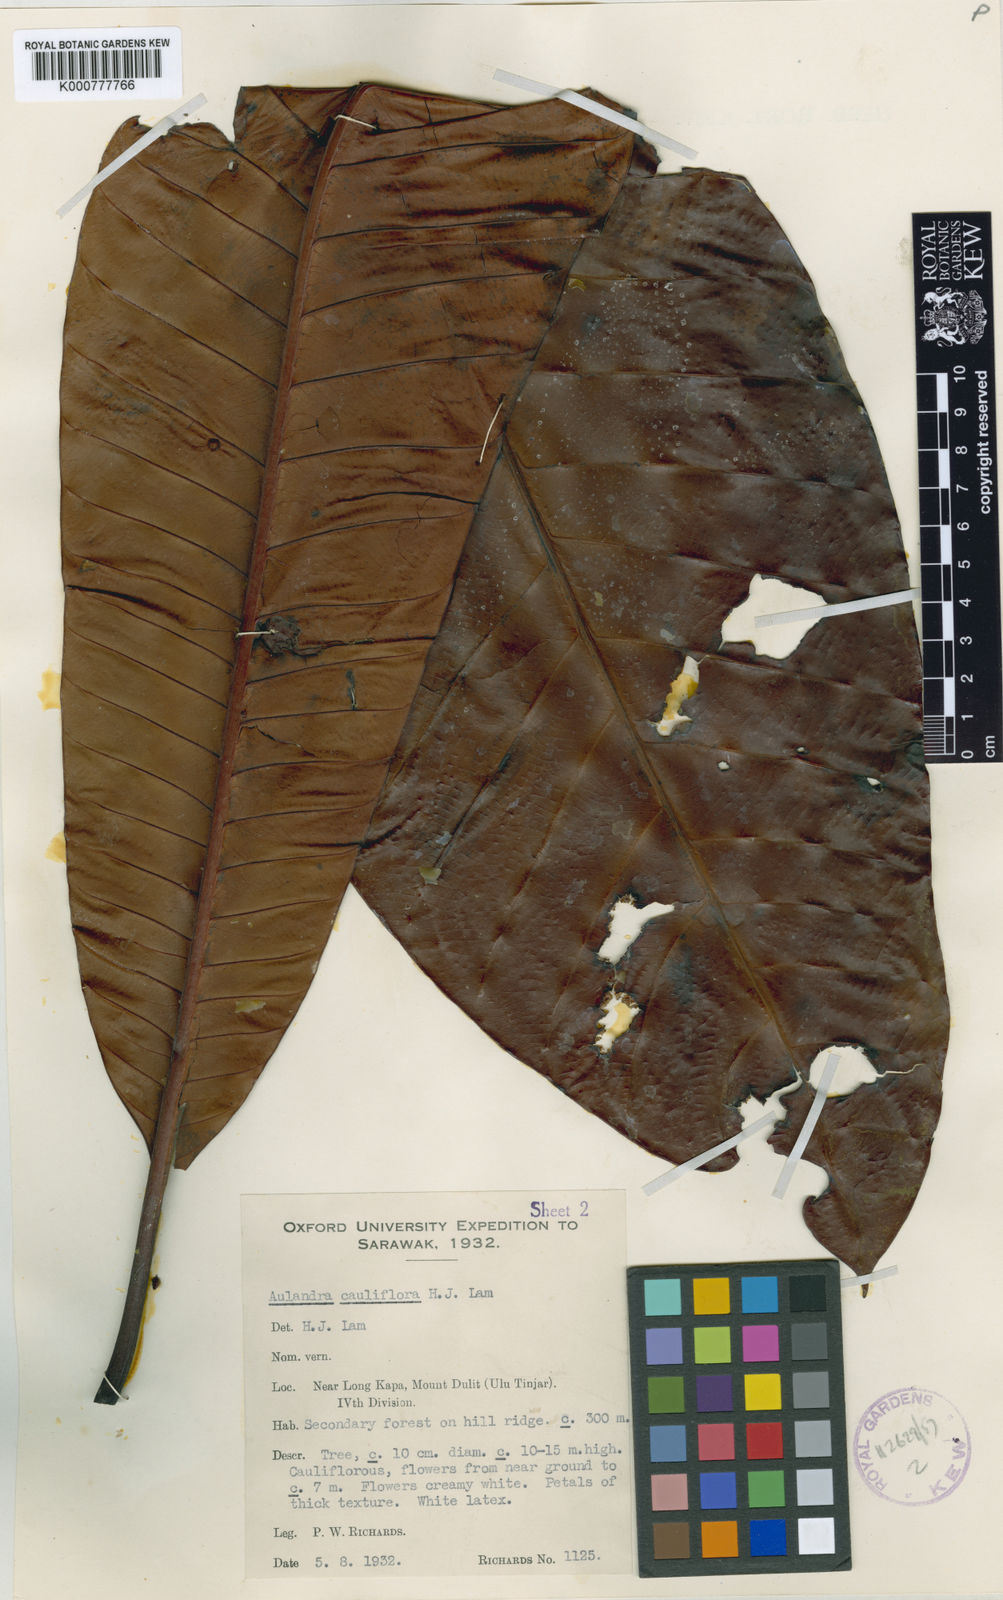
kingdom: Plantae
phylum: Tracheophyta
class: Magnoliopsida
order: Ericales
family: Sapotaceae
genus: Aulandra
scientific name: Aulandra cauliflora
